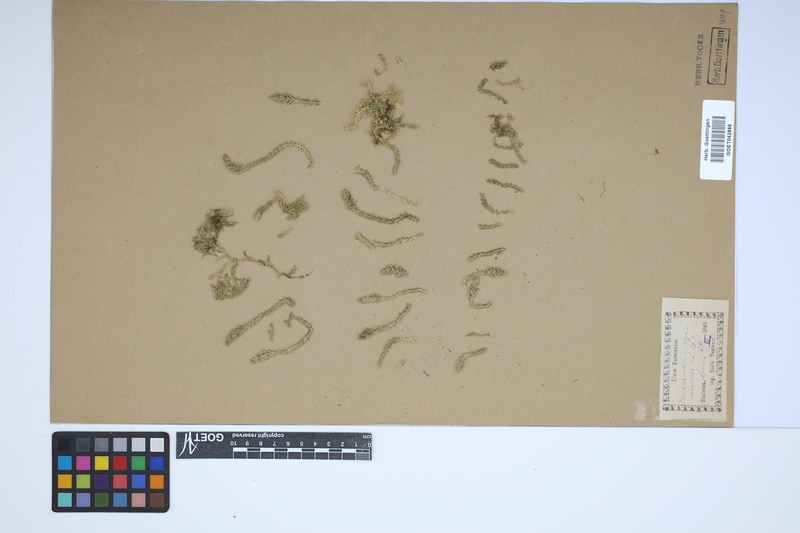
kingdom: Plantae
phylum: Tracheophyta
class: Lycopodiopsida
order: Selaginellales
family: Selaginellaceae
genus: Selaginella
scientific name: Selaginella selaginoides
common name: Prickly mountain-moss
